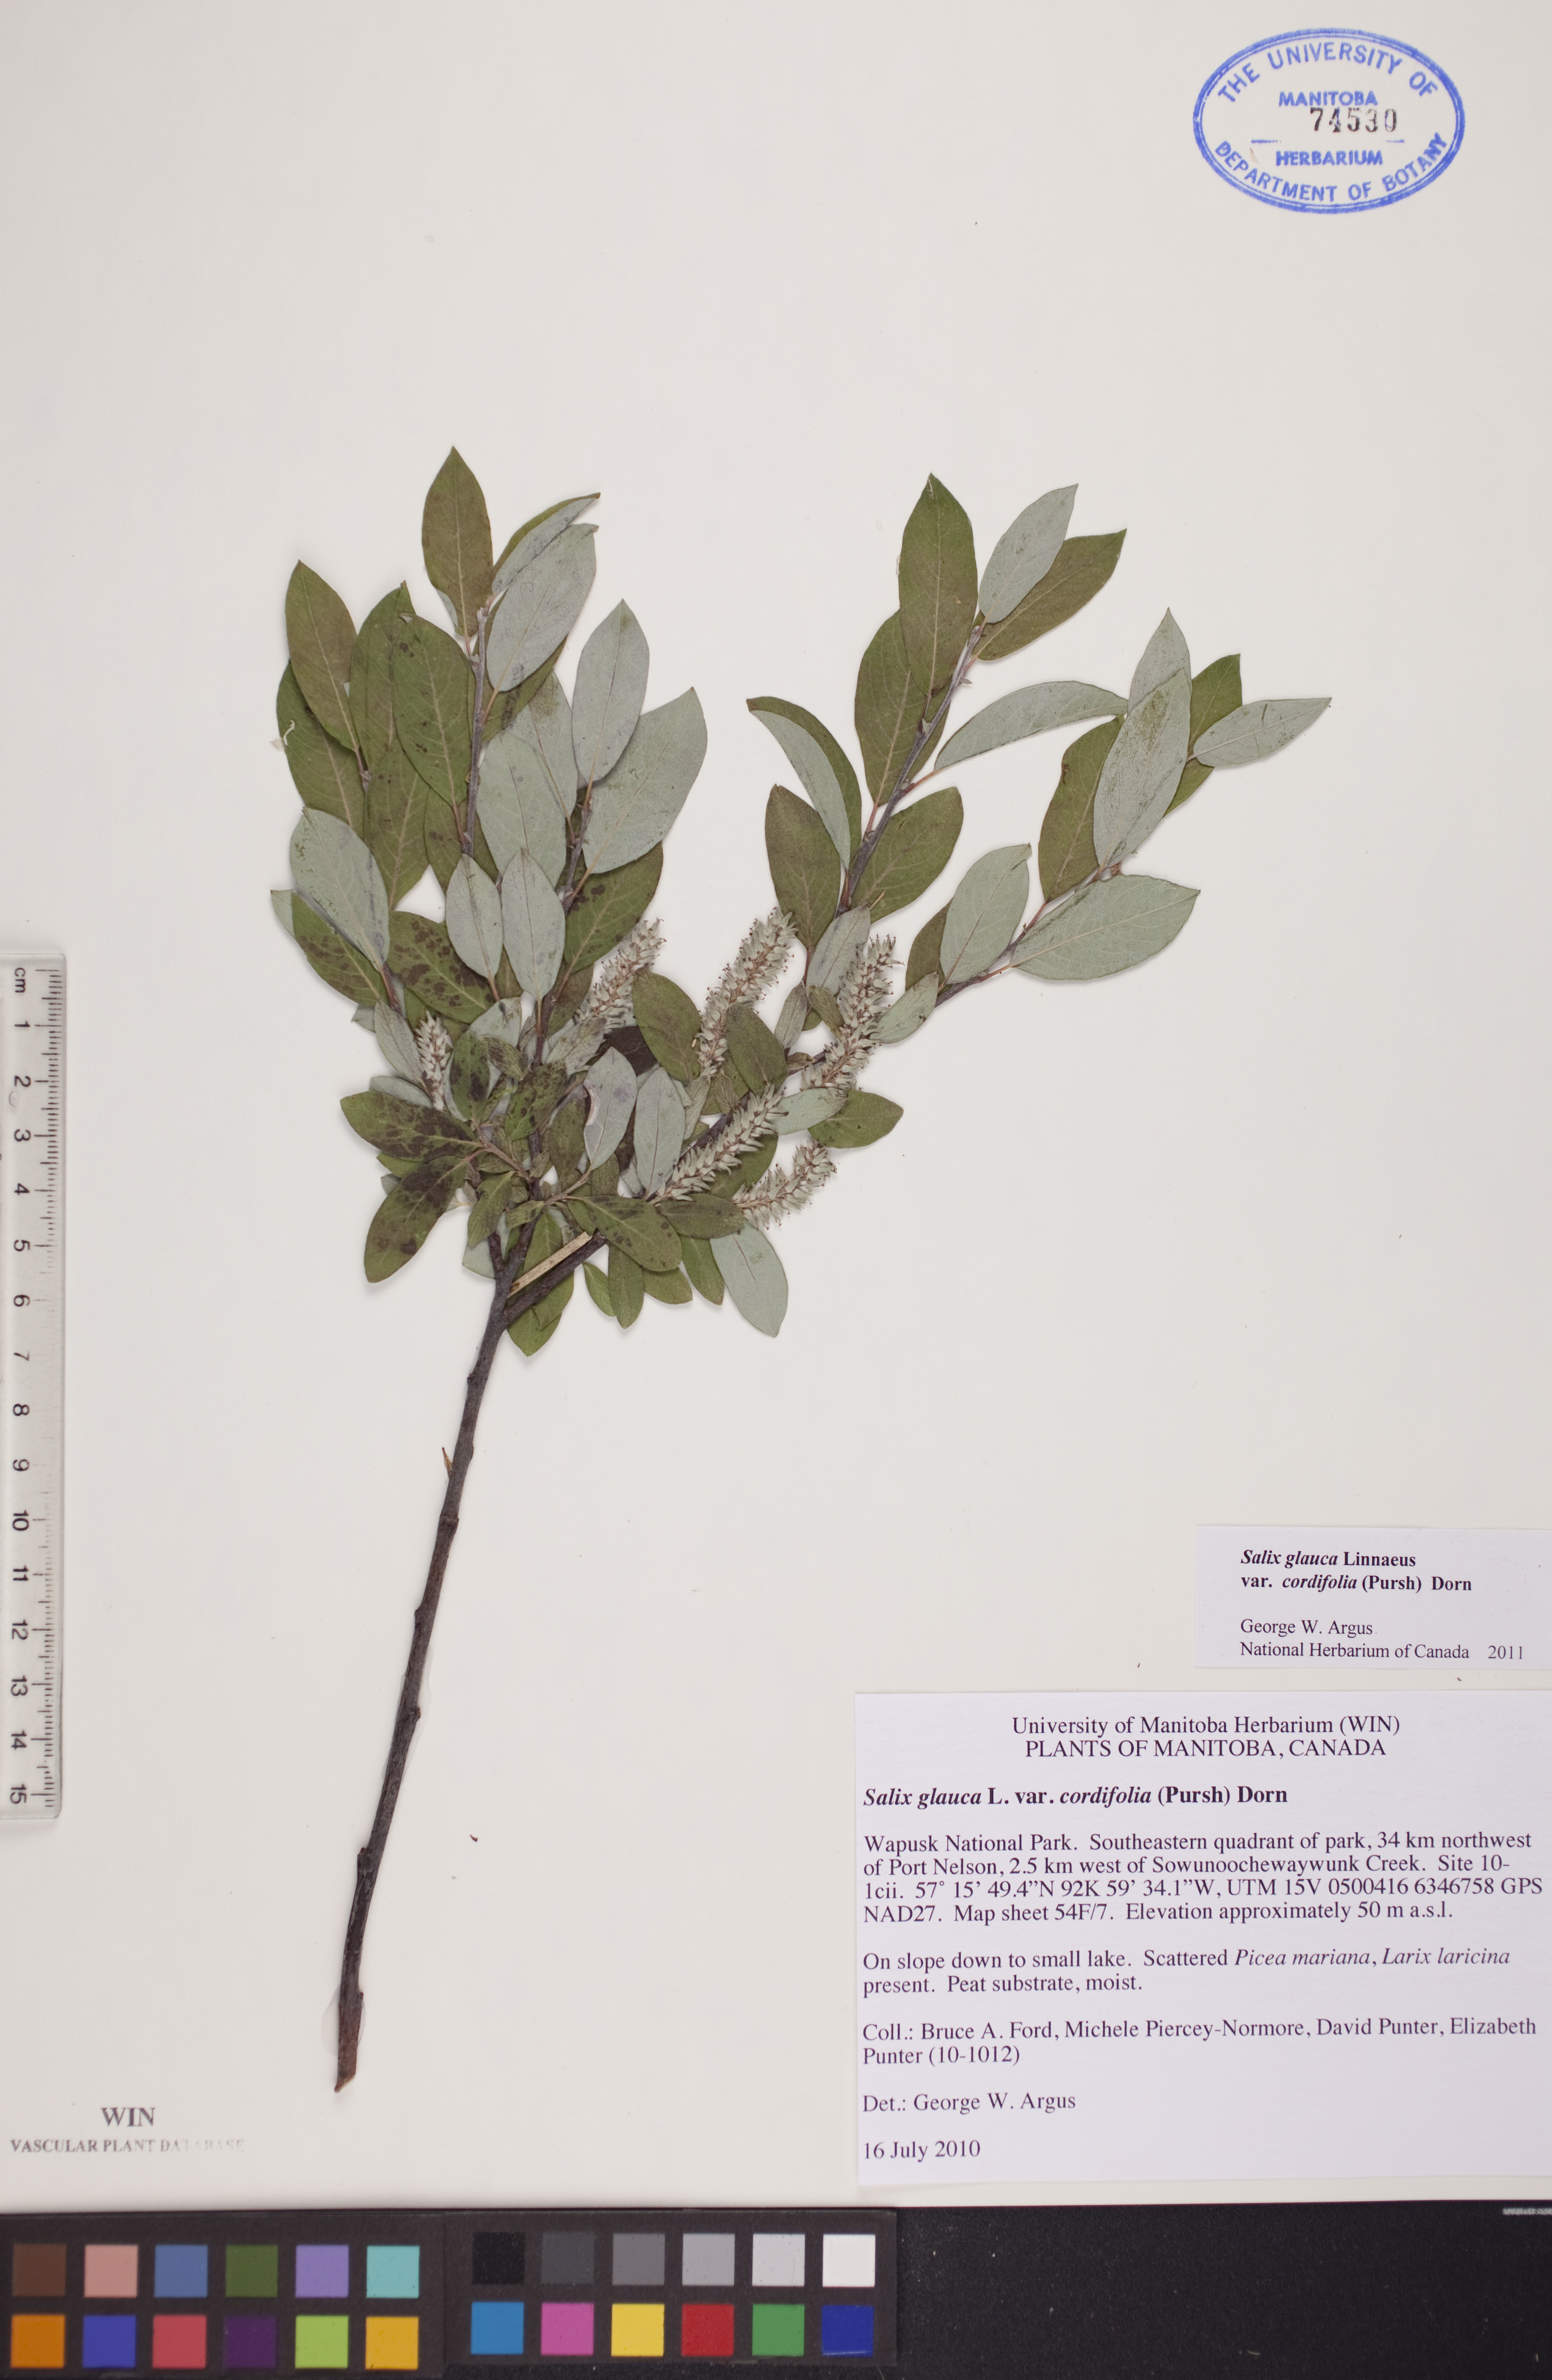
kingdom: Plantae
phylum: Tracheophyta
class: Magnoliopsida
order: Malpighiales
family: Salicaceae
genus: Salix
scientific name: Salix glauca
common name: Glaucous willow
